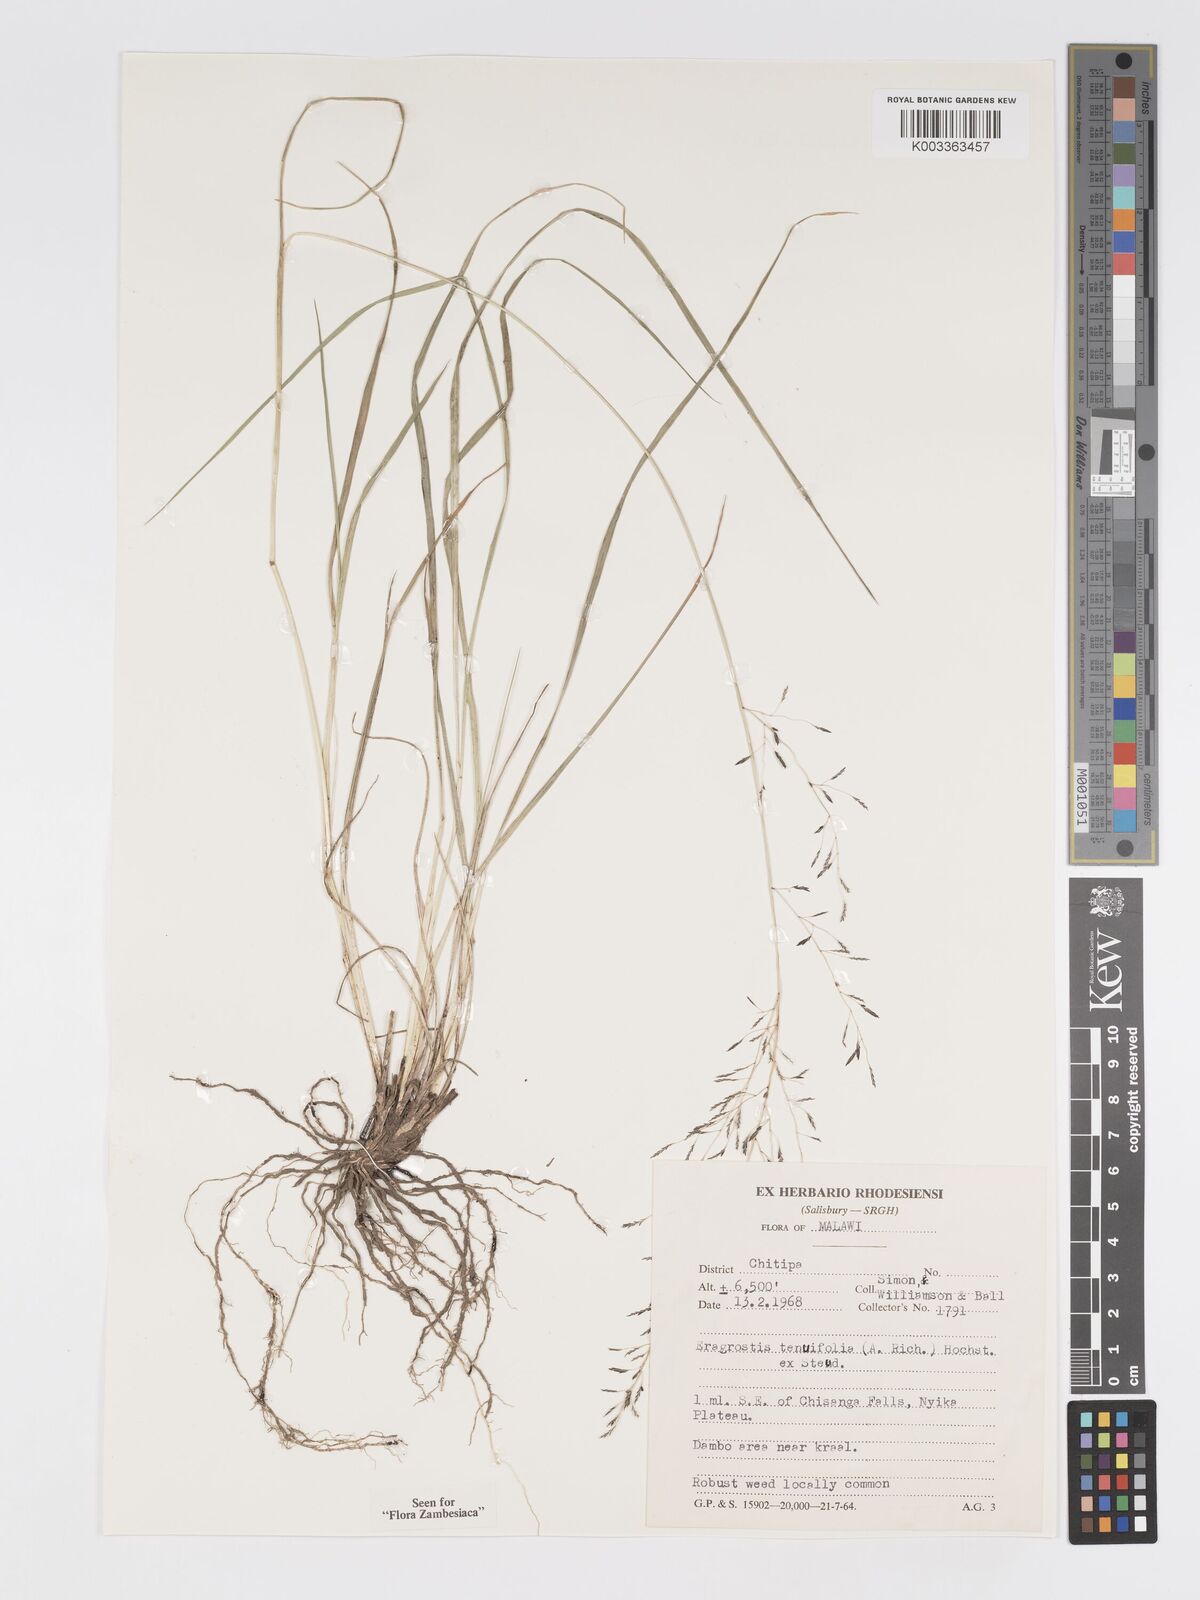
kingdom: Plantae
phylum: Tracheophyta
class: Liliopsida
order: Poales
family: Poaceae
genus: Eragrostis
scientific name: Eragrostis tenuifolia
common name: Elastic grass
